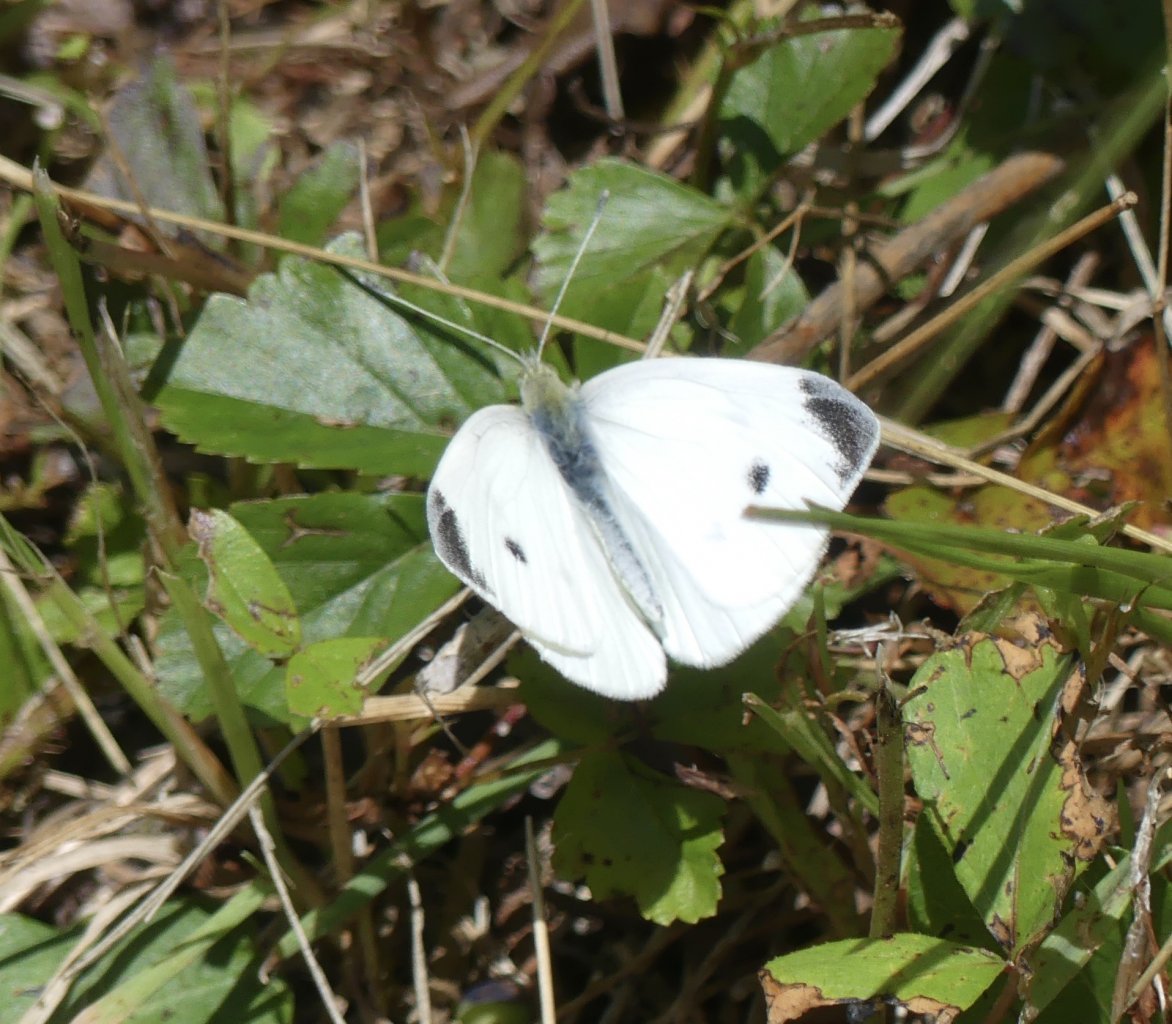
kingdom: Animalia
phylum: Arthropoda
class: Insecta
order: Lepidoptera
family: Pieridae
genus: Pieris
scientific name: Pieris rapae
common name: Cabbage White
